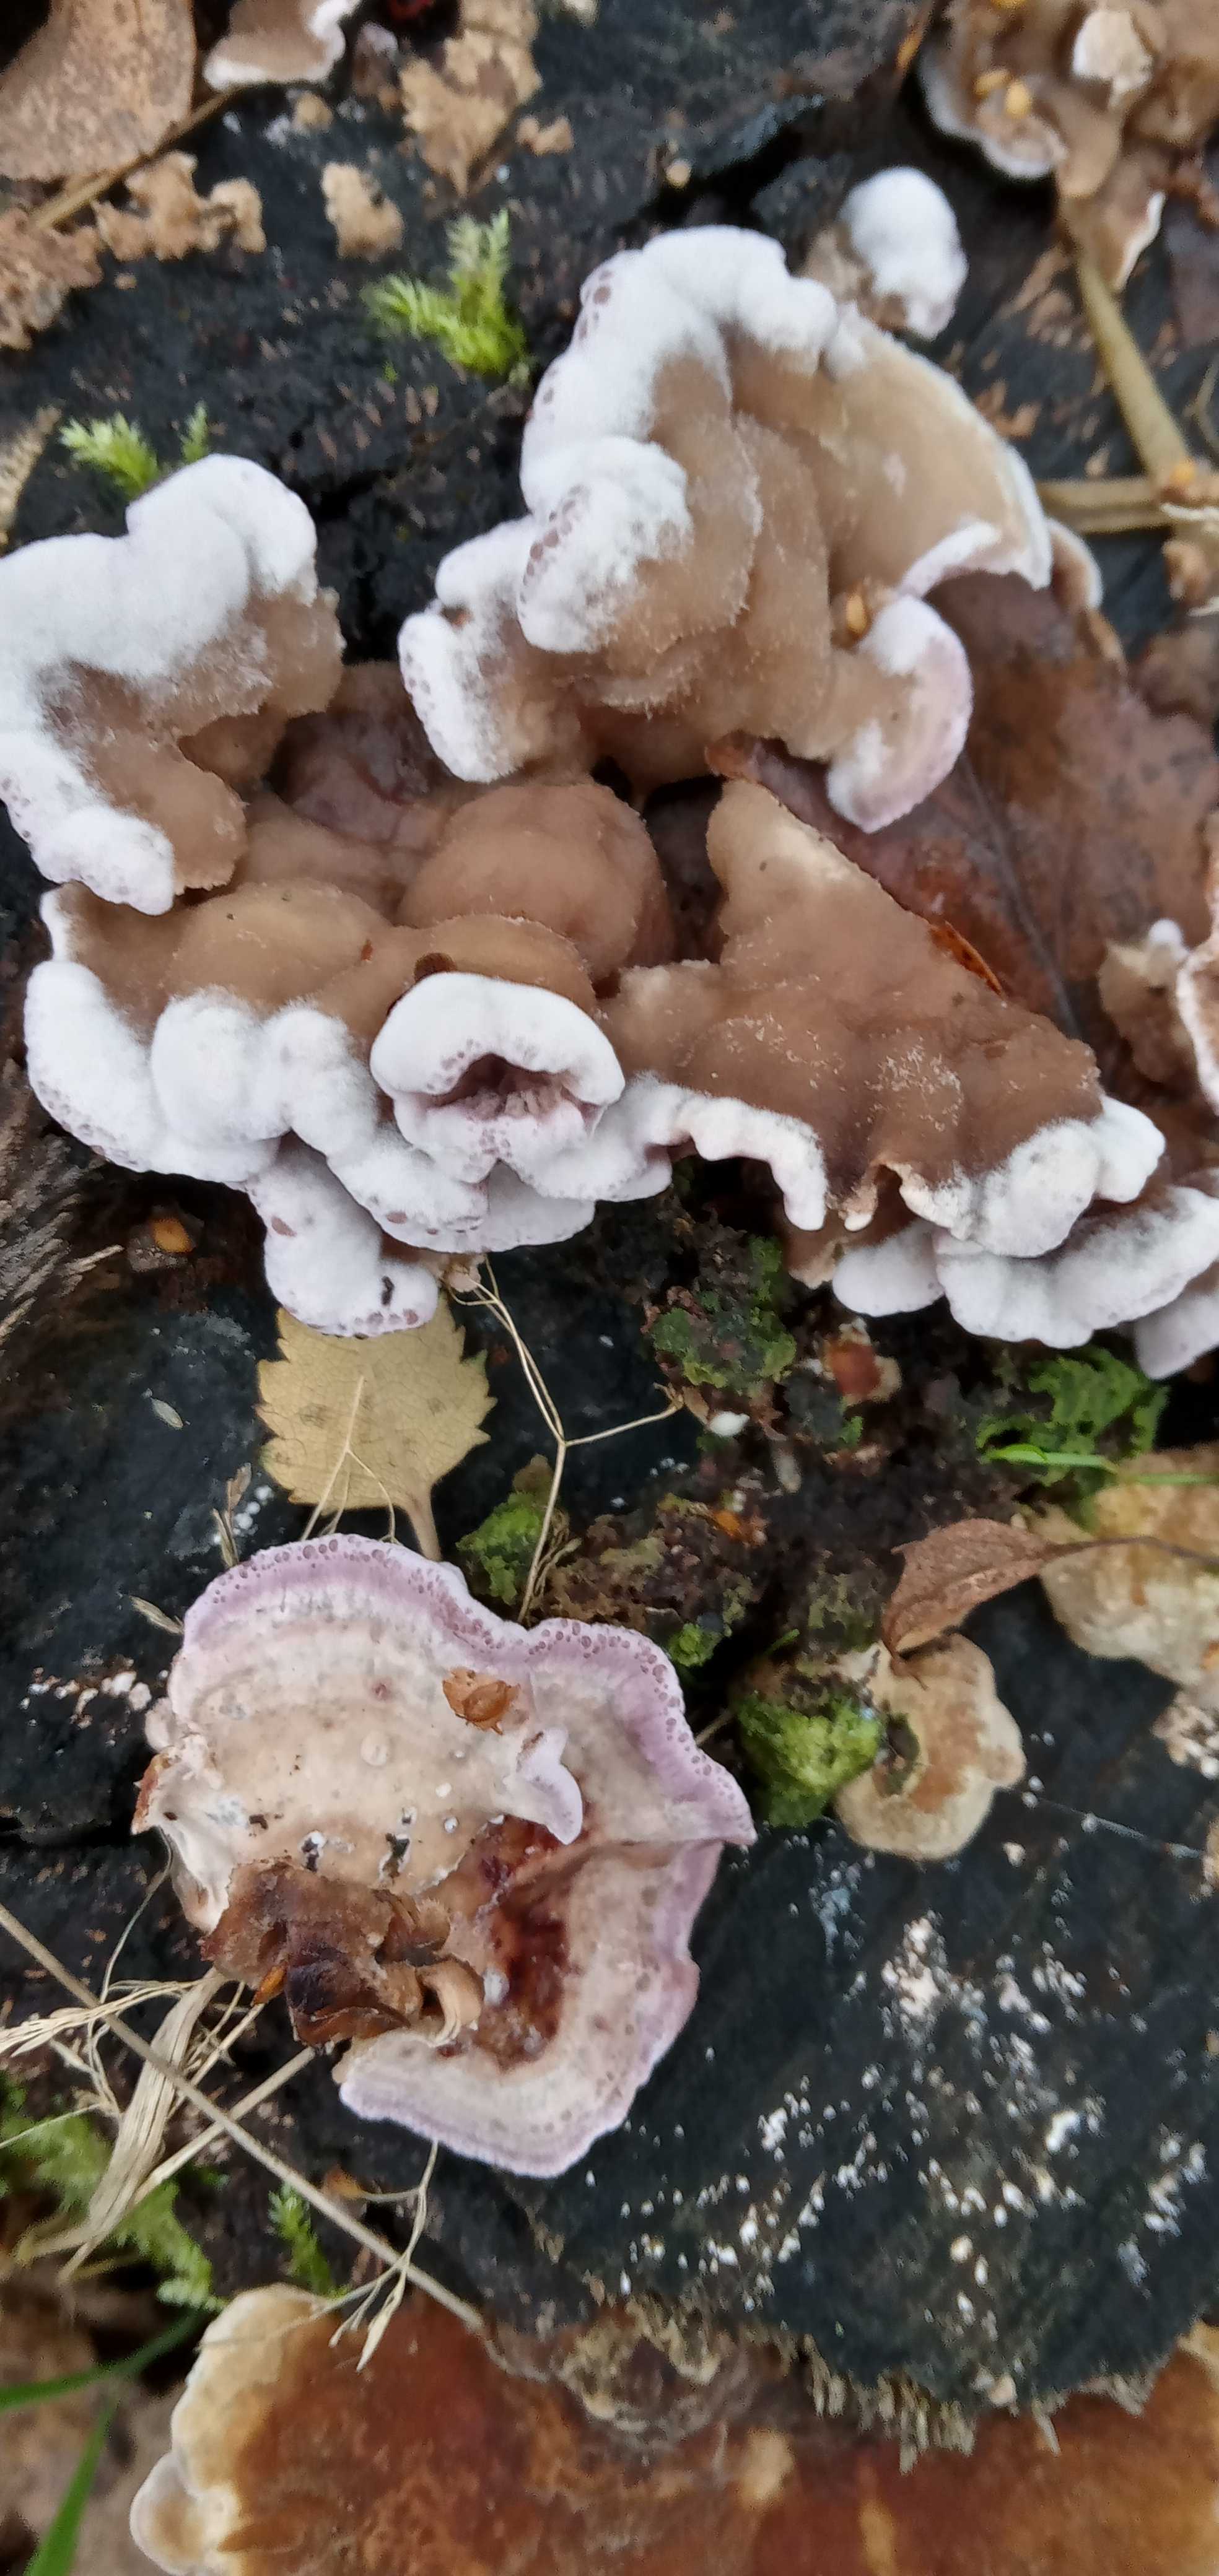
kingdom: Fungi
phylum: Basidiomycota
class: Agaricomycetes
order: Agaricales
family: Cyphellaceae
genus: Chondrostereum
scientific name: Chondrostereum purpureum
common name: purpurlædersvamp
